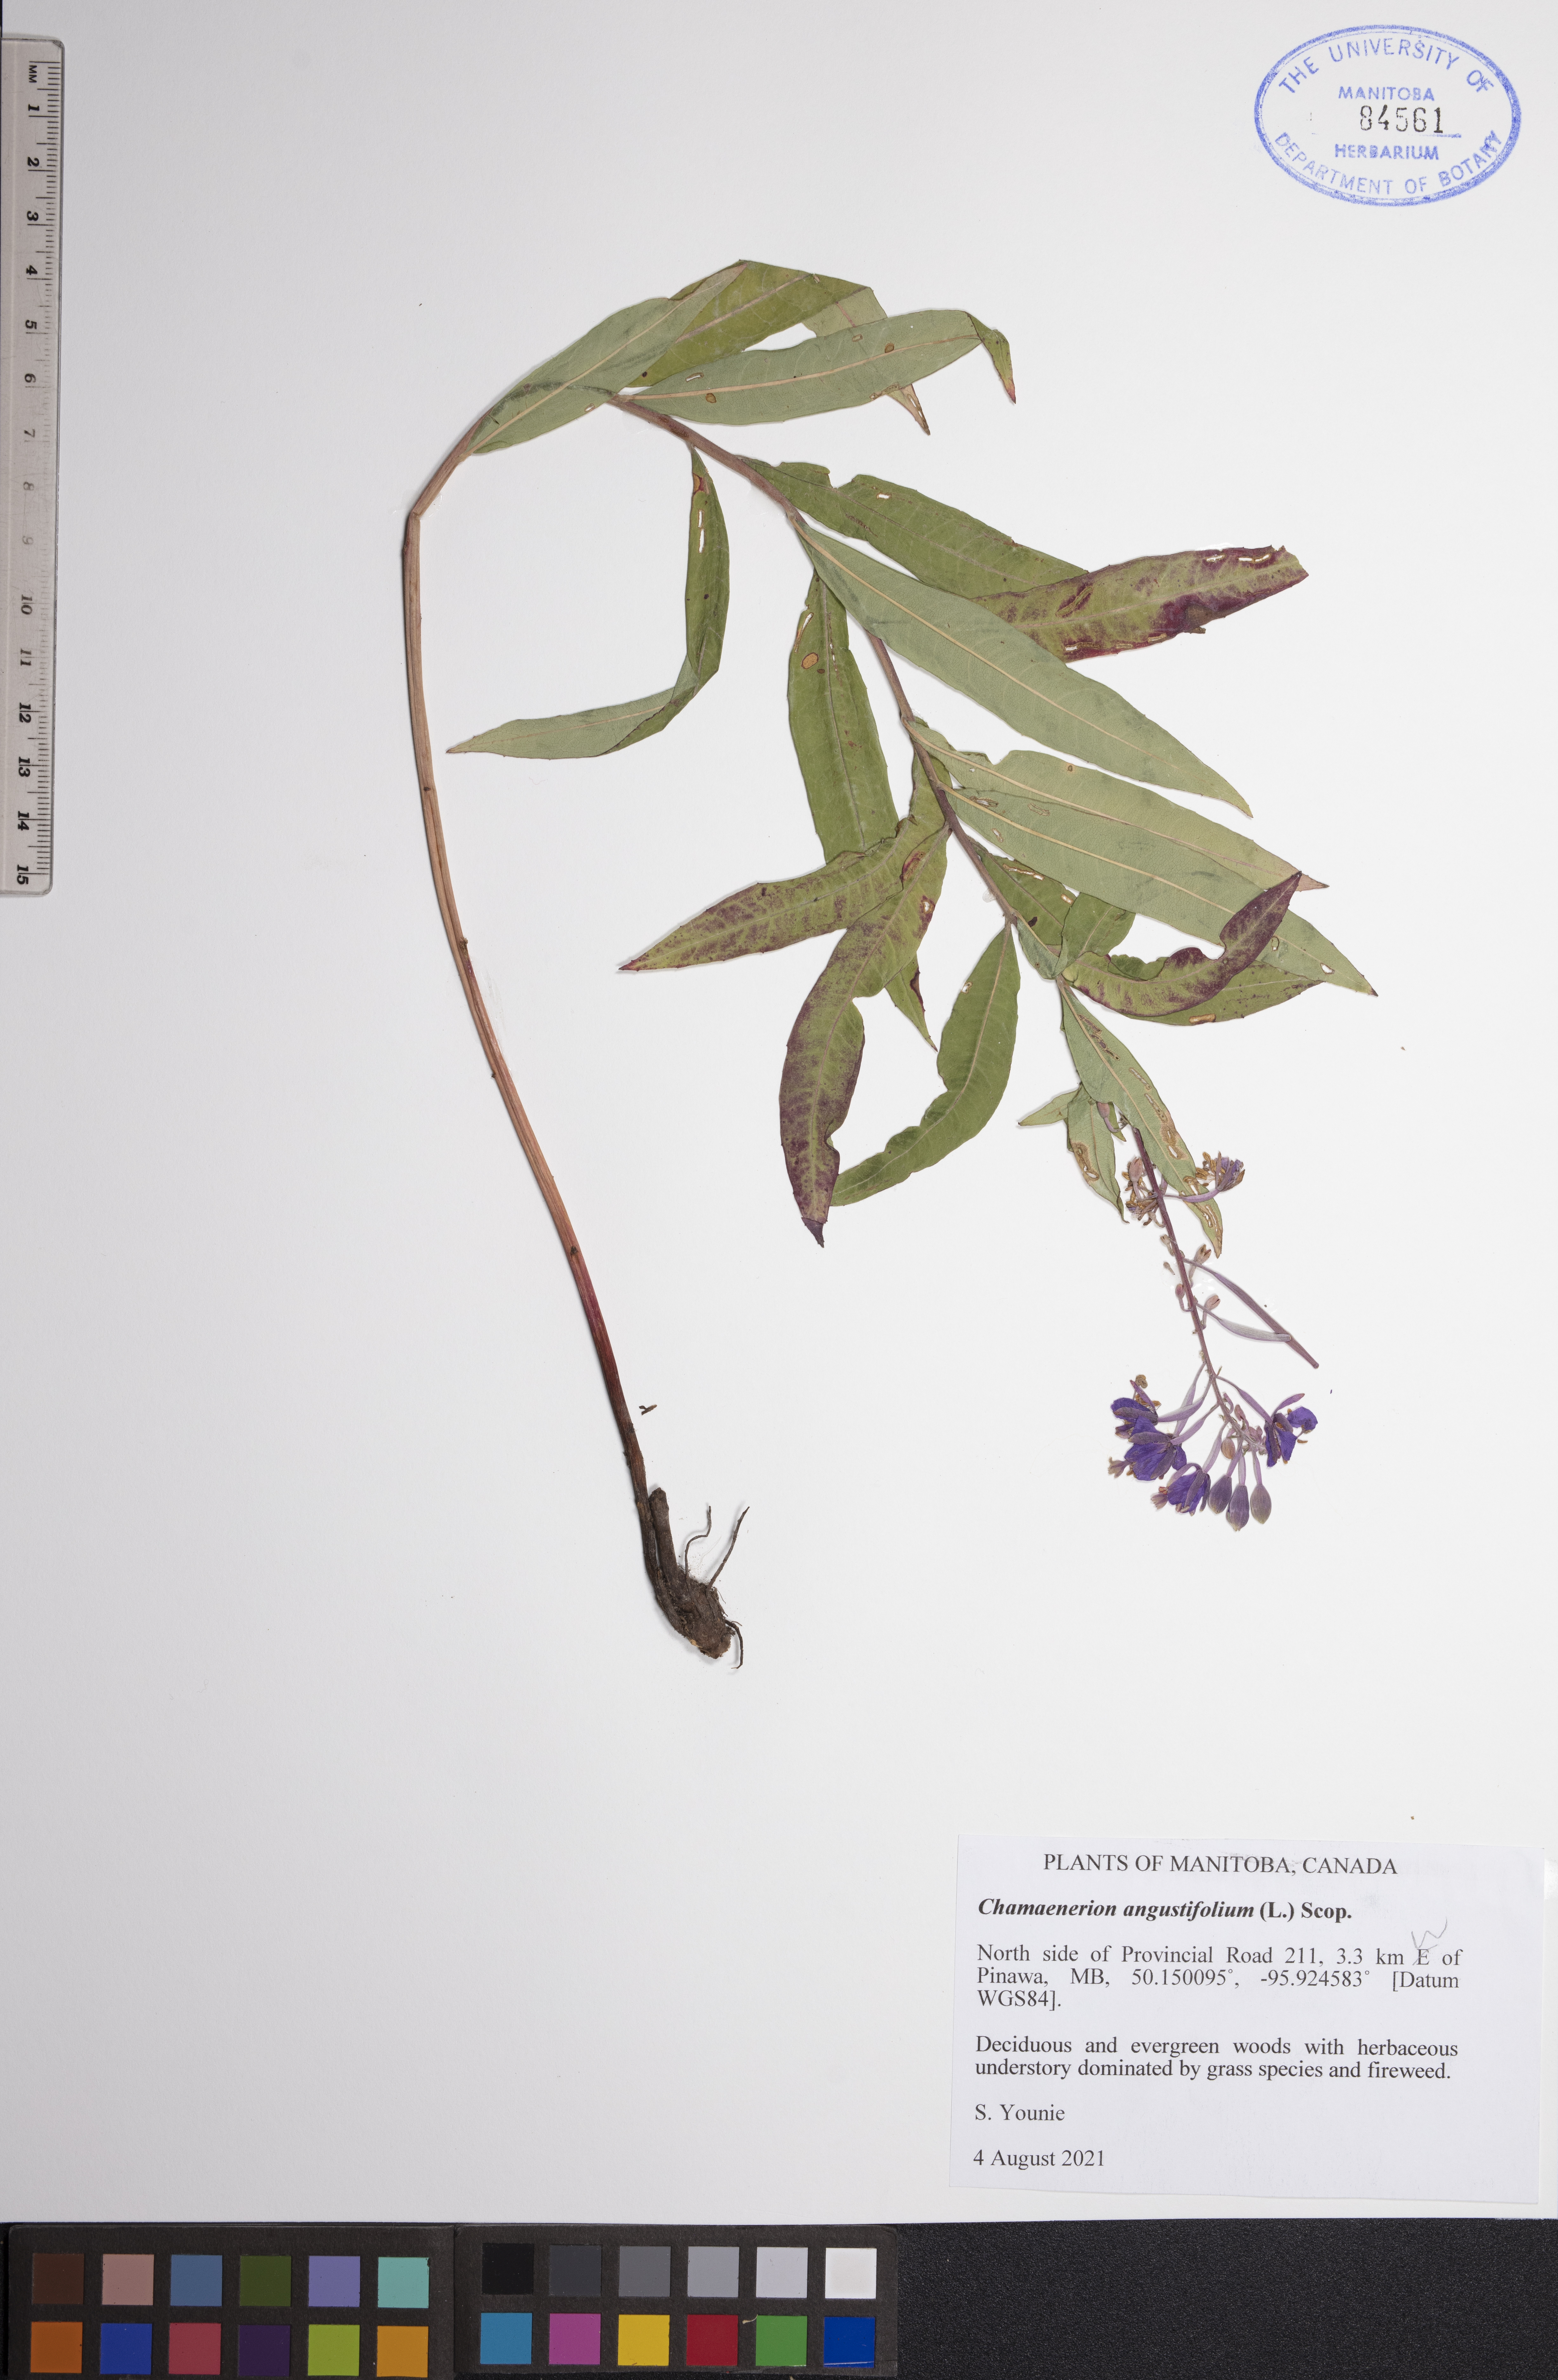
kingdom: Plantae
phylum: Tracheophyta
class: Magnoliopsida
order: Myrtales
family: Onagraceae
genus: Chamaenerion
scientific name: Chamaenerion angustifolium
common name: Fireweed
